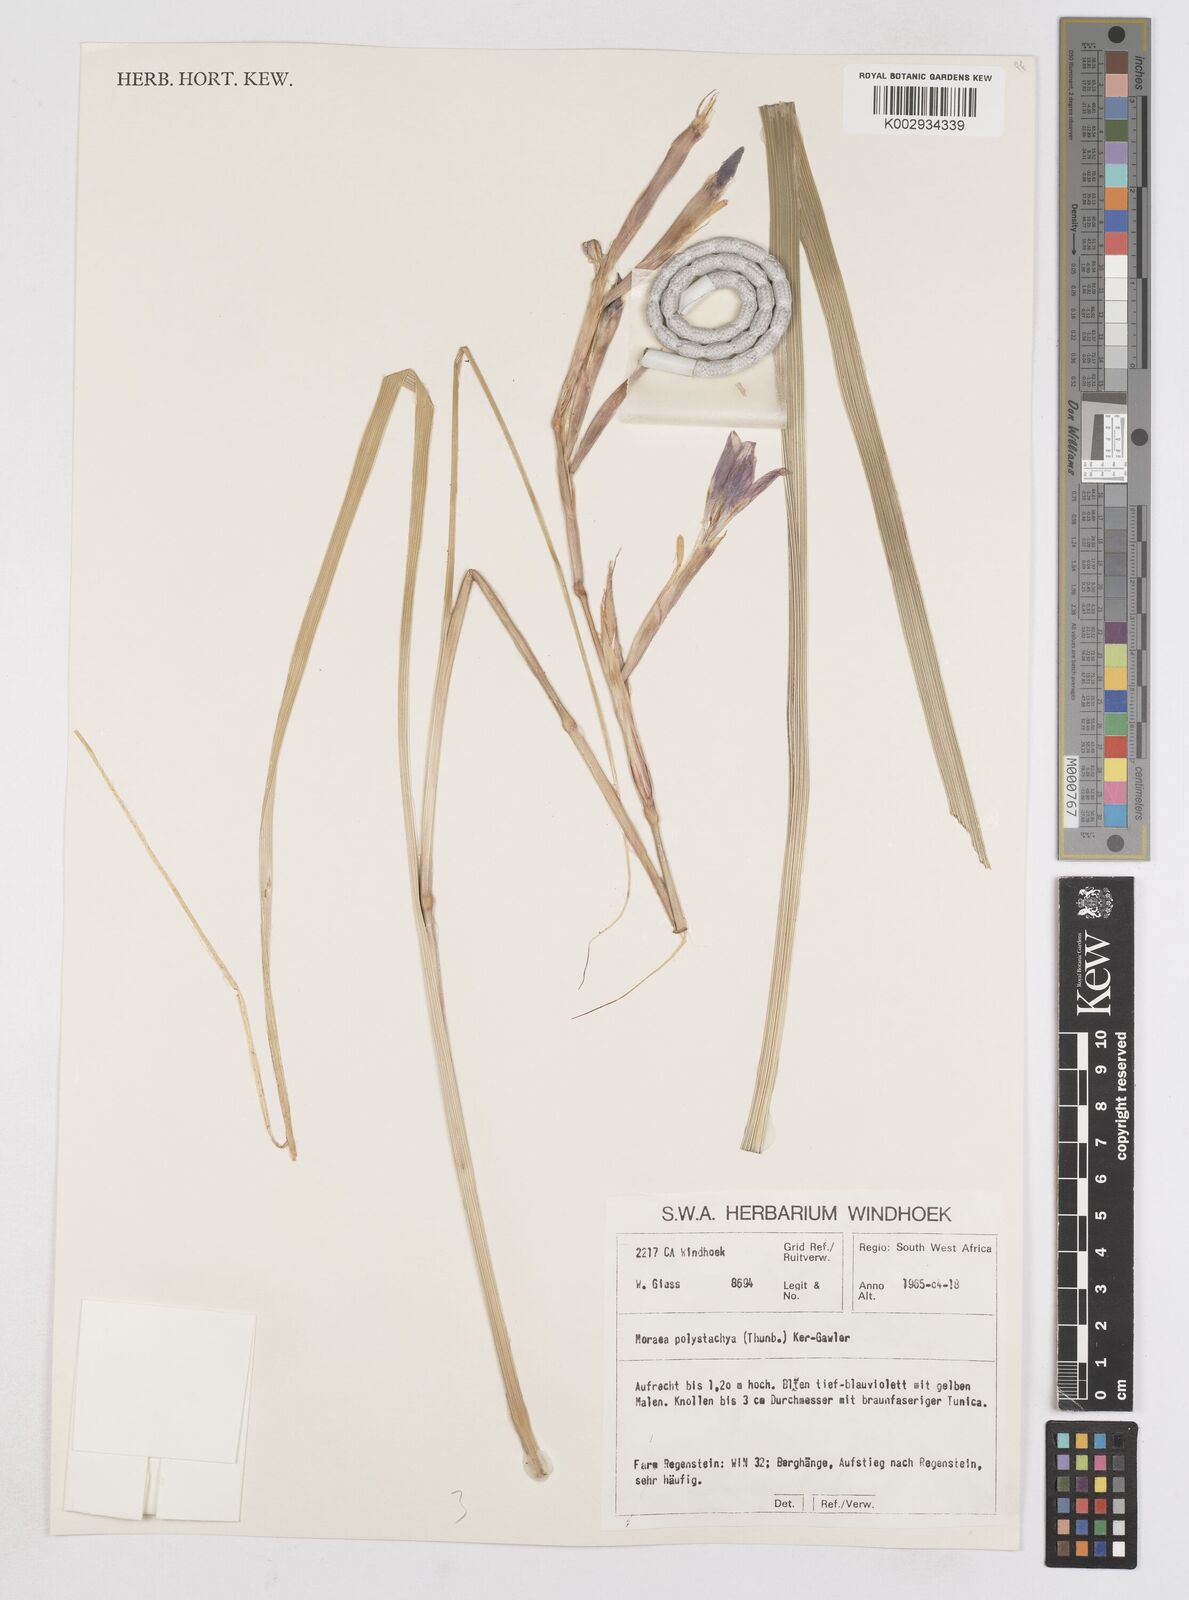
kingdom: Plantae
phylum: Tracheophyta
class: Liliopsida
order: Asparagales
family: Iridaceae
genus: Moraea
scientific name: Moraea polystachya
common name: Blue-tulip
